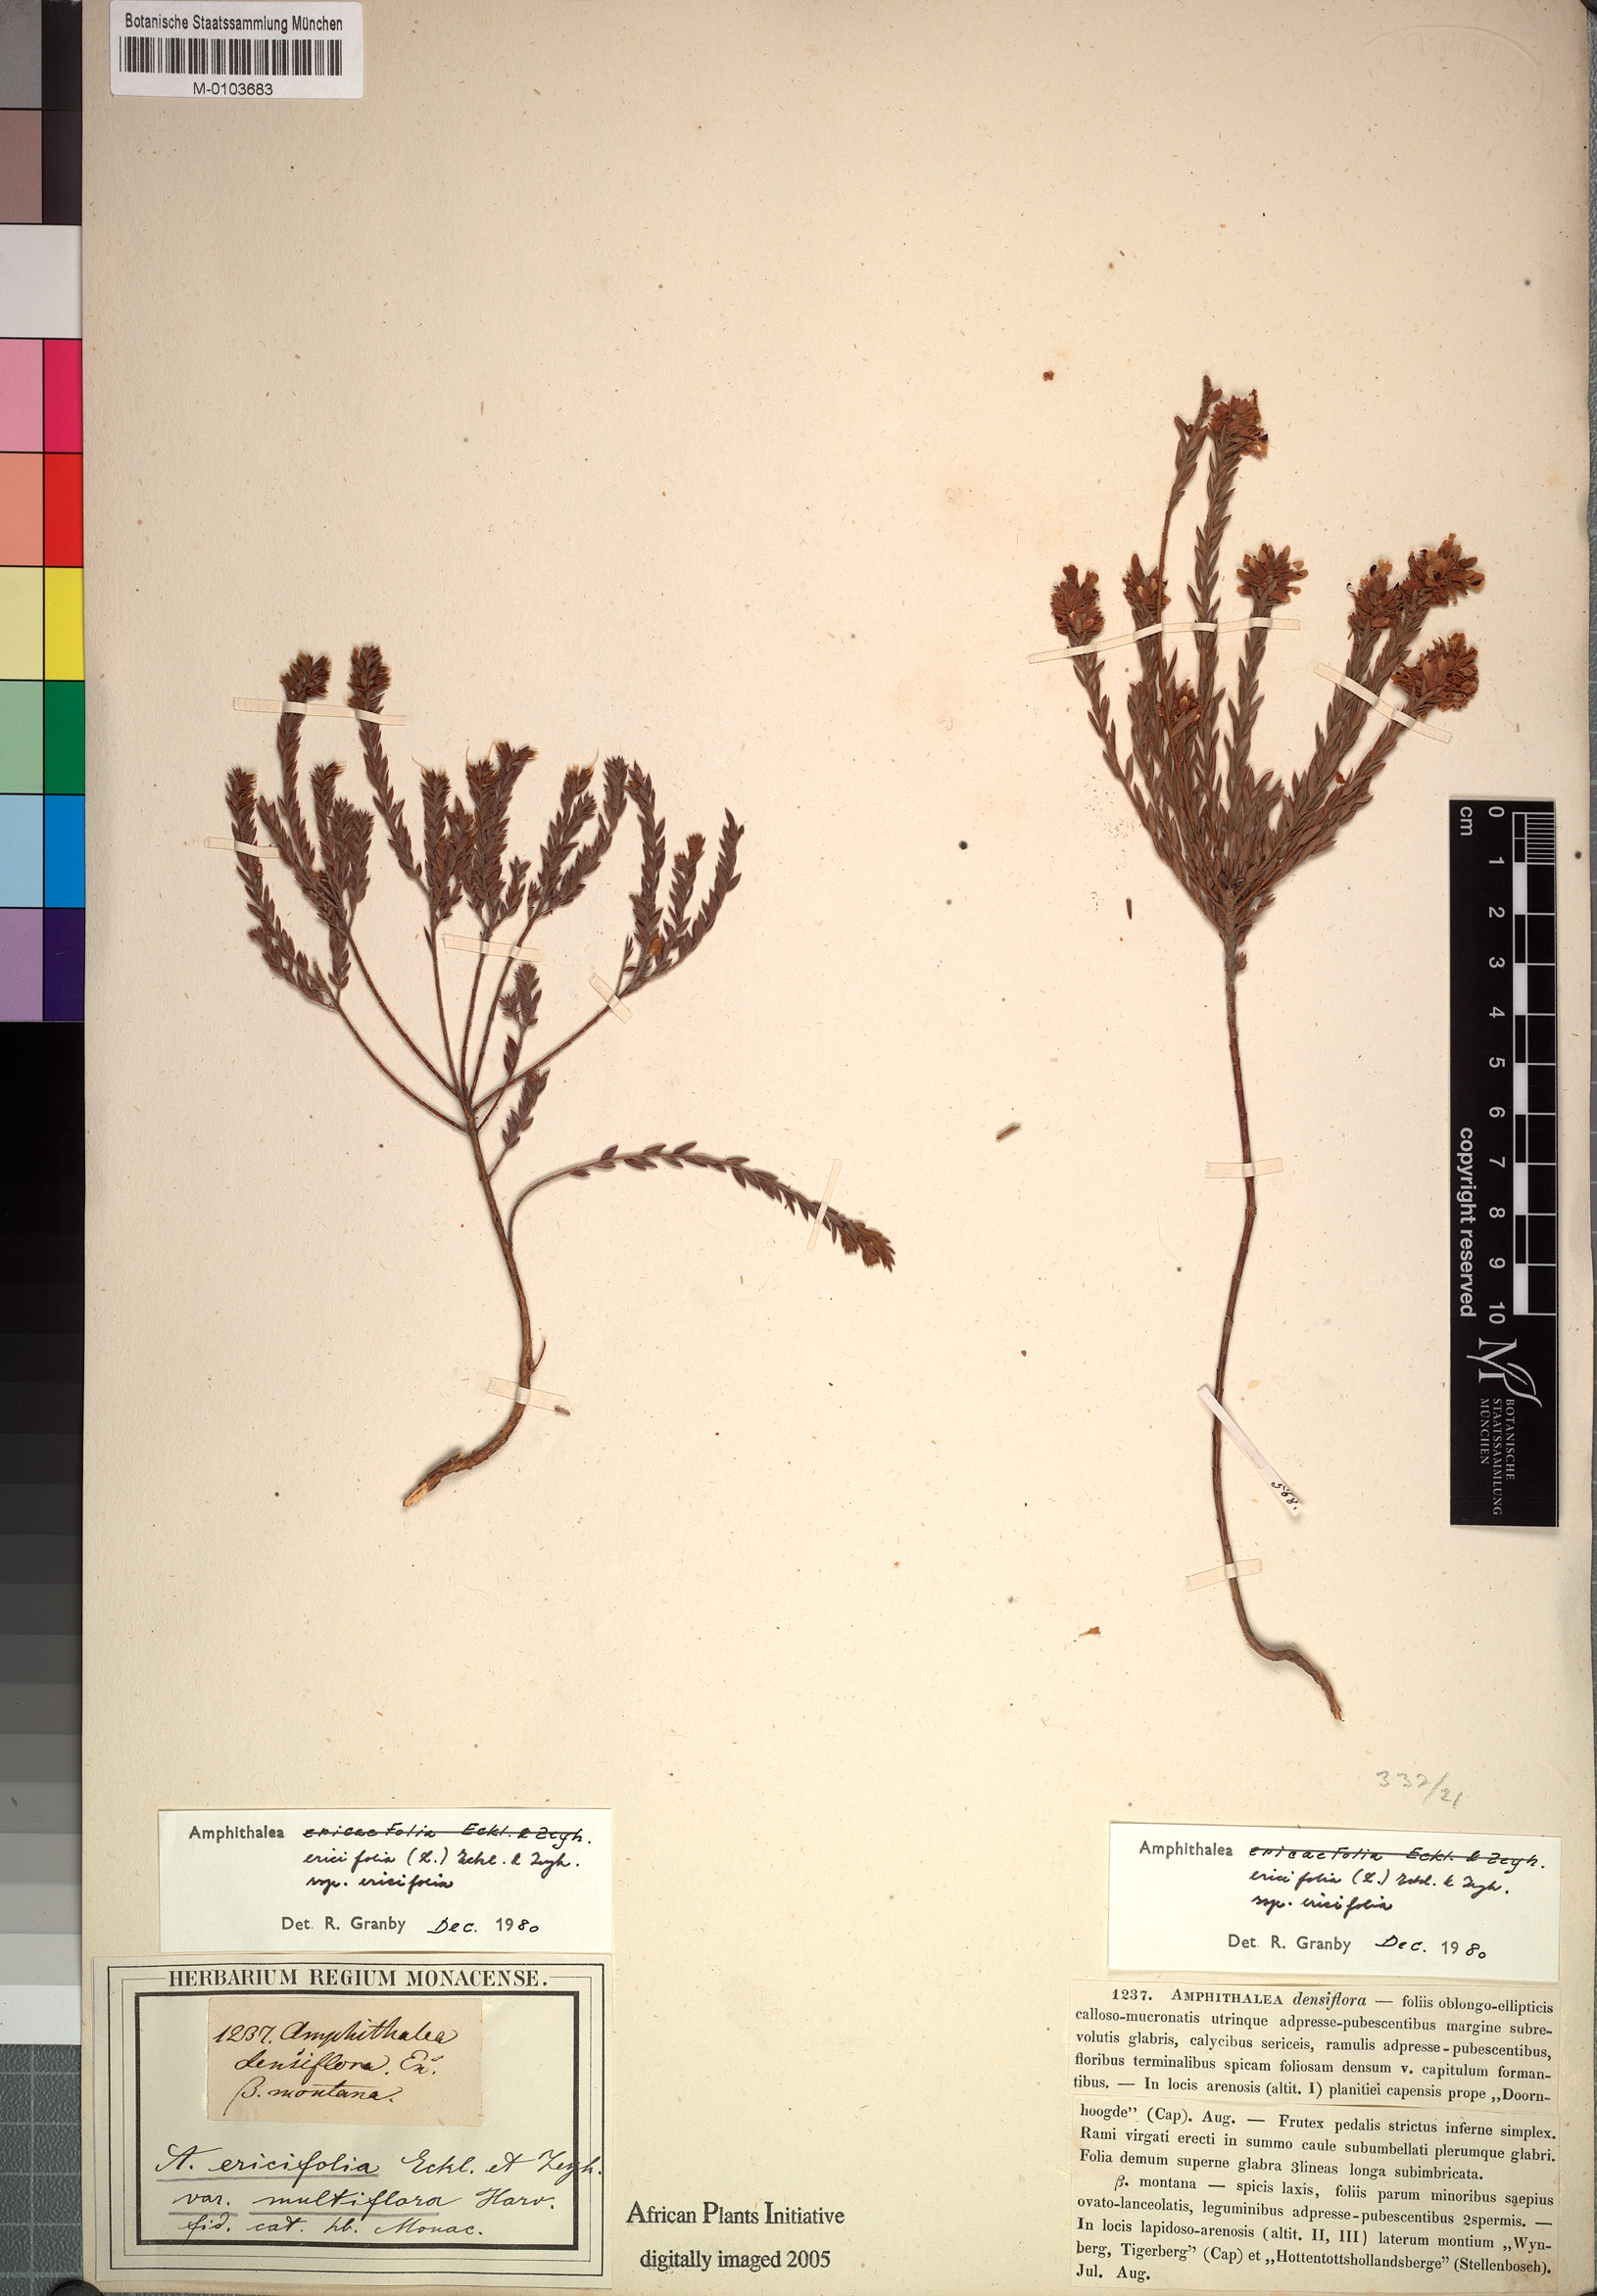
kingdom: Plantae
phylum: Tracheophyta
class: Magnoliopsida
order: Fabales
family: Fabaceae
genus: Amphithalea
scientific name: Amphithalea ericaefolia
